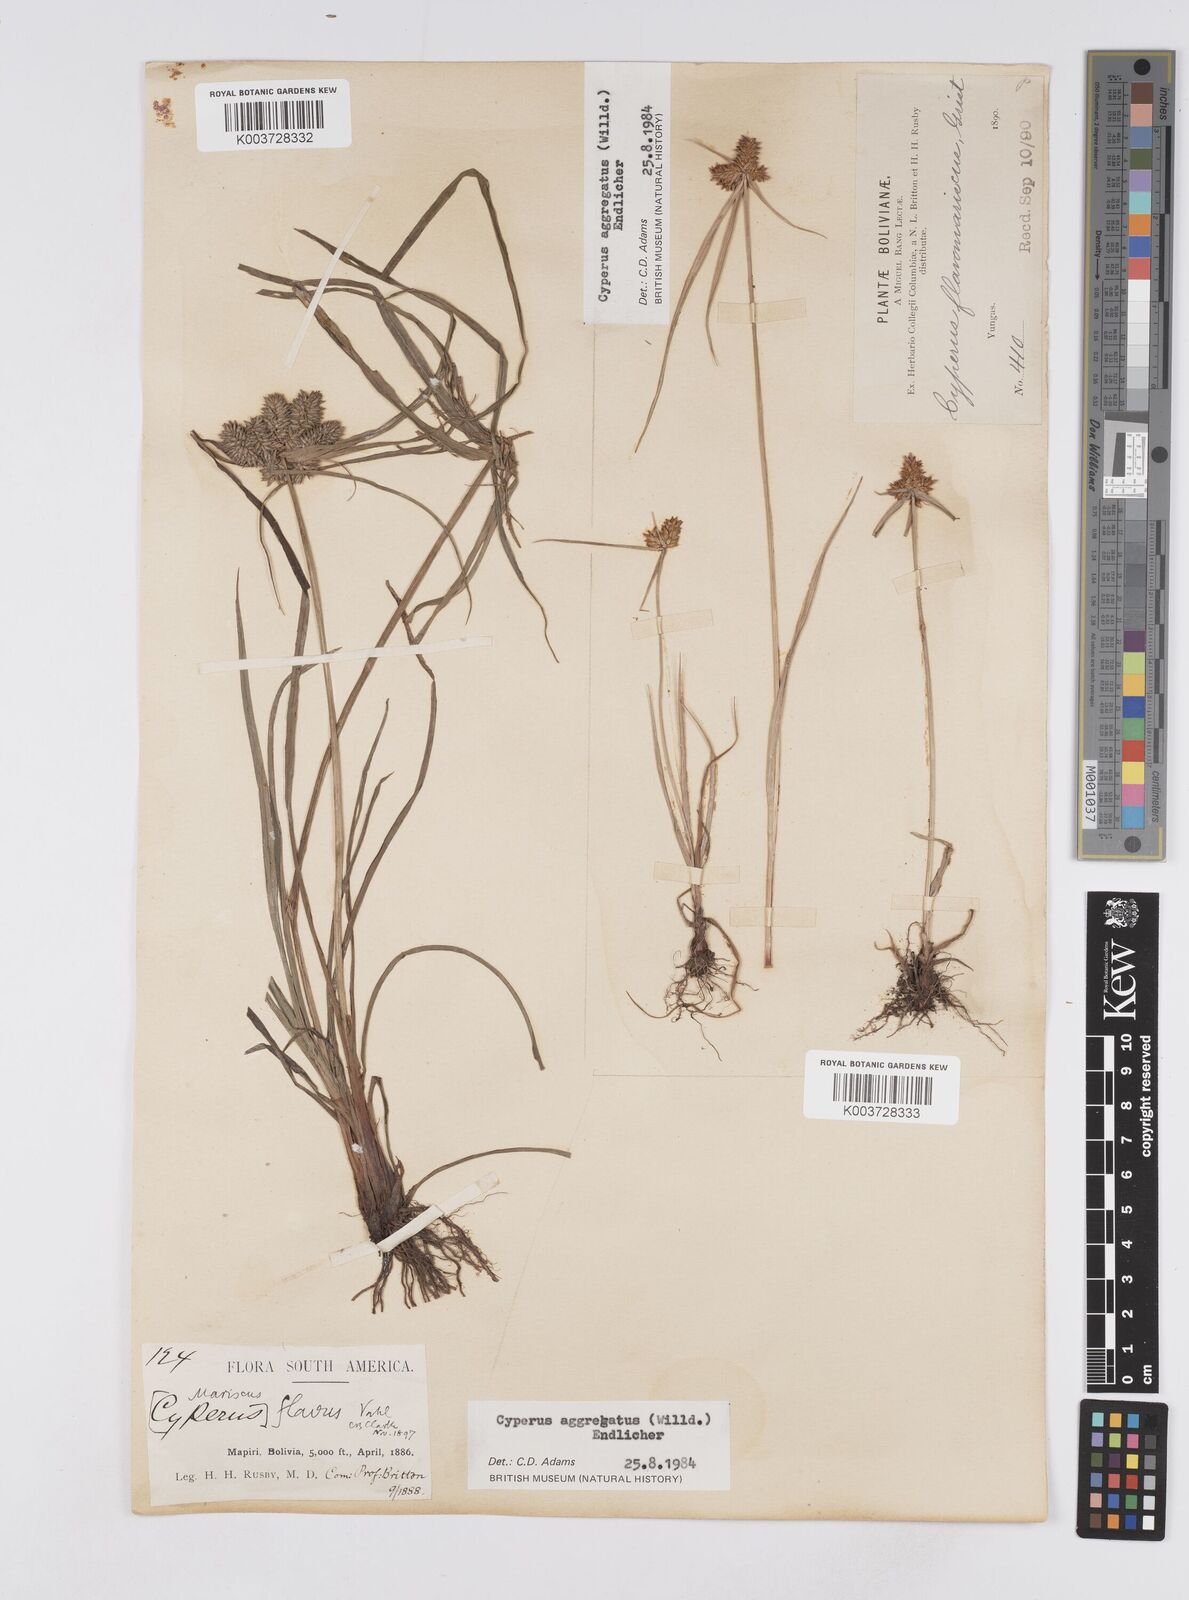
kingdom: Plantae
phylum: Tracheophyta
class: Liliopsida
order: Poales
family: Cyperaceae
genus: Cyperus
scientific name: Cyperus aggregatus
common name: Inflatedscale flatsedge
